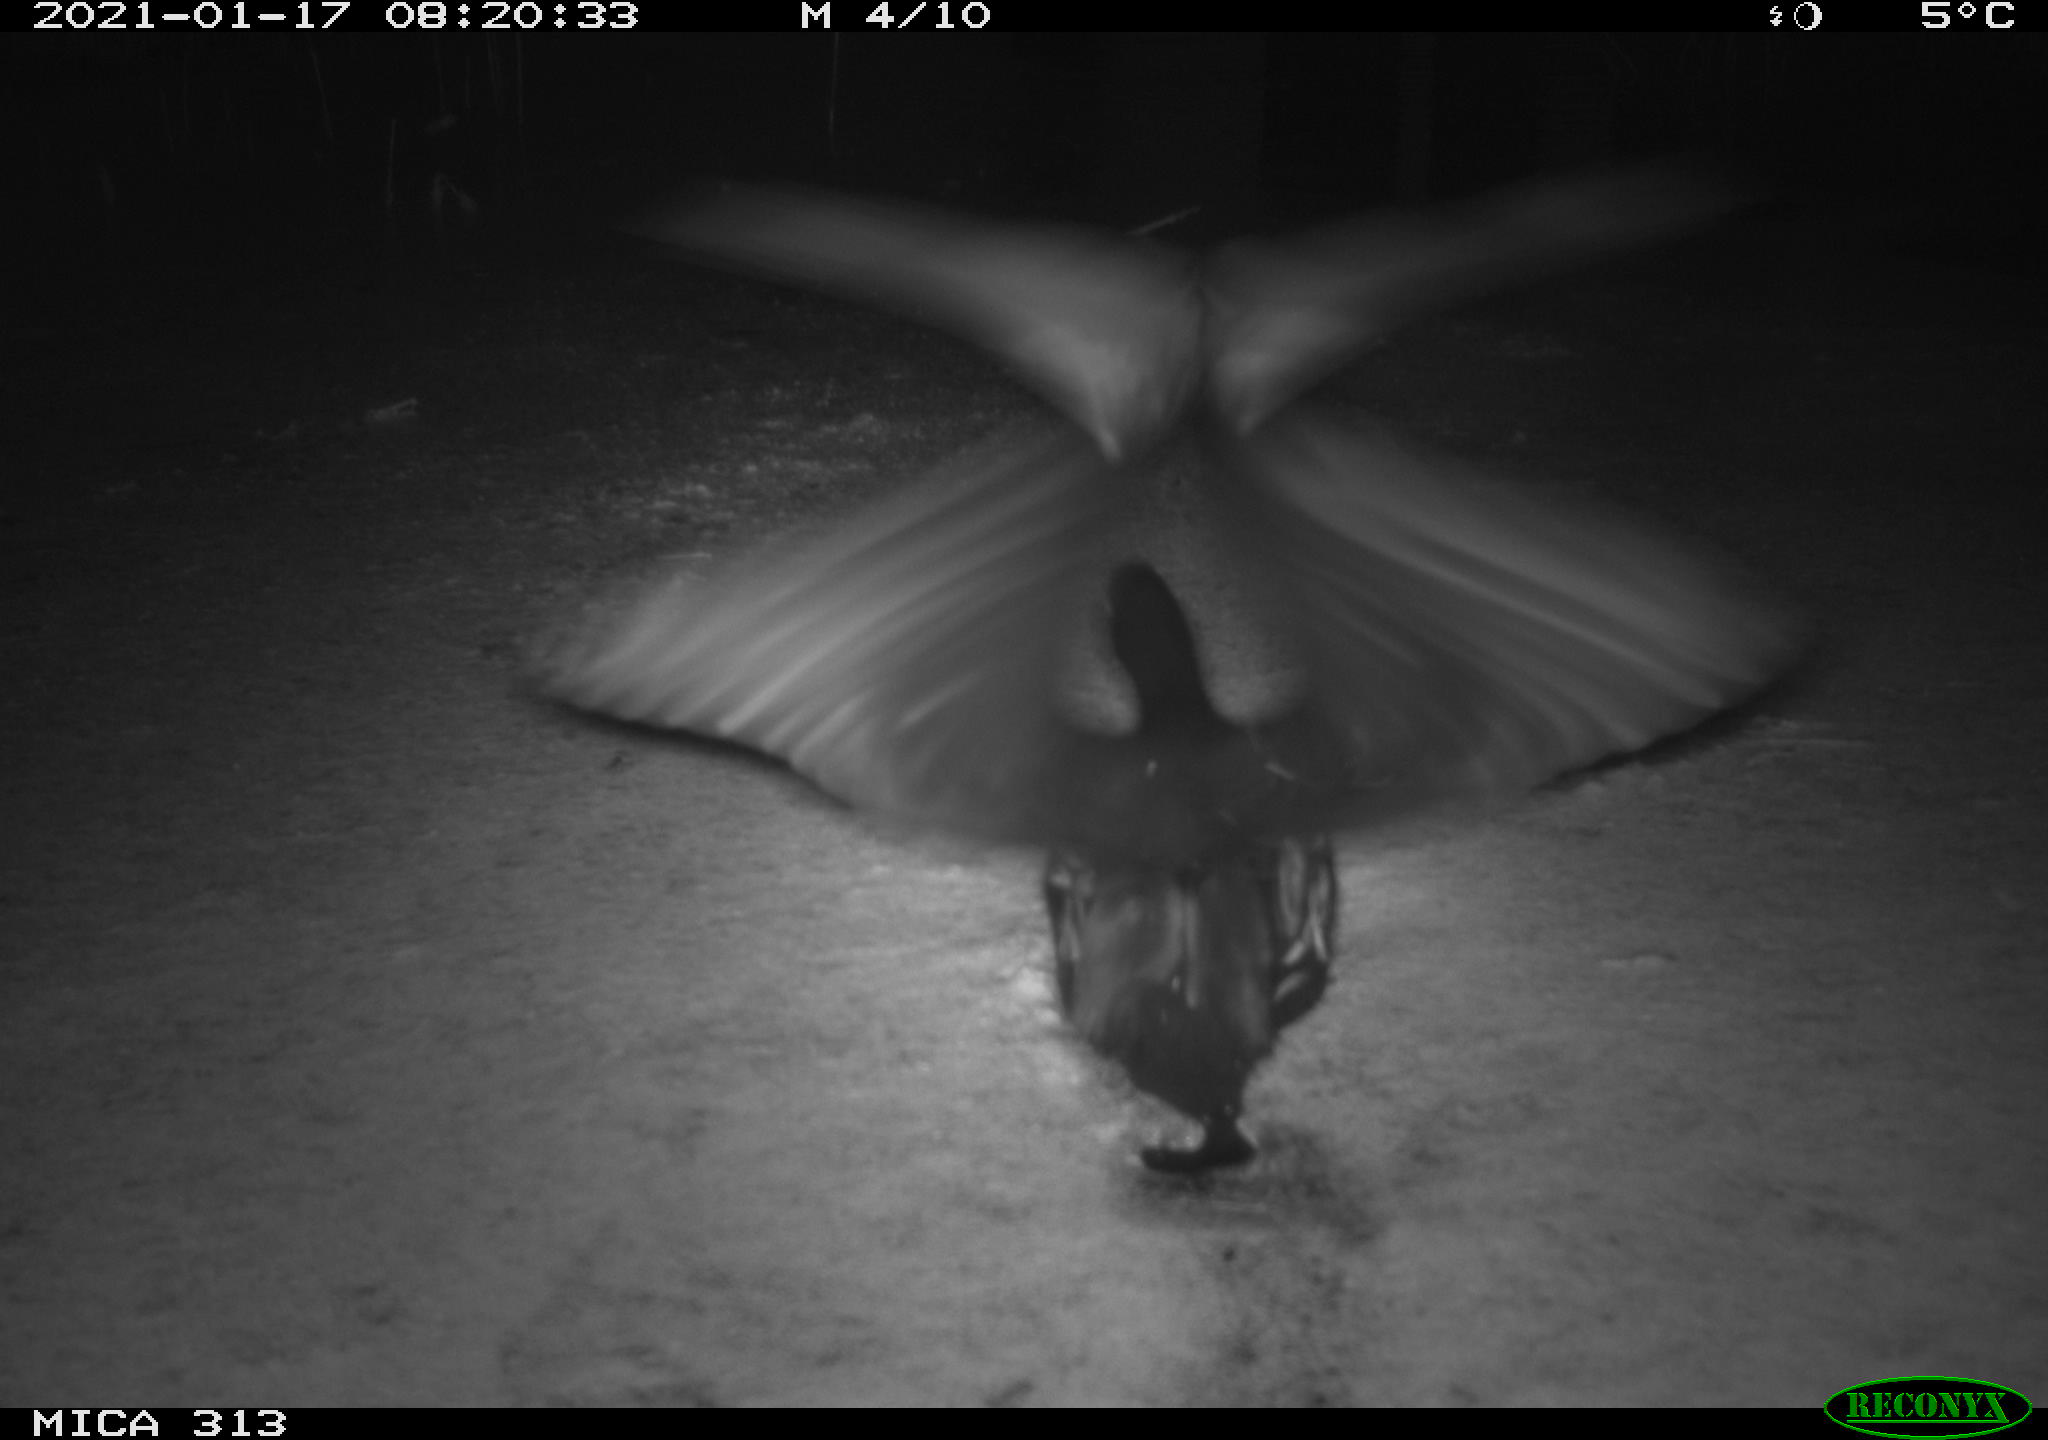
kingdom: Animalia
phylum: Chordata
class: Aves
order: Gruiformes
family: Rallidae
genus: Gallinula
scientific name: Gallinula chloropus
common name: Common moorhen
